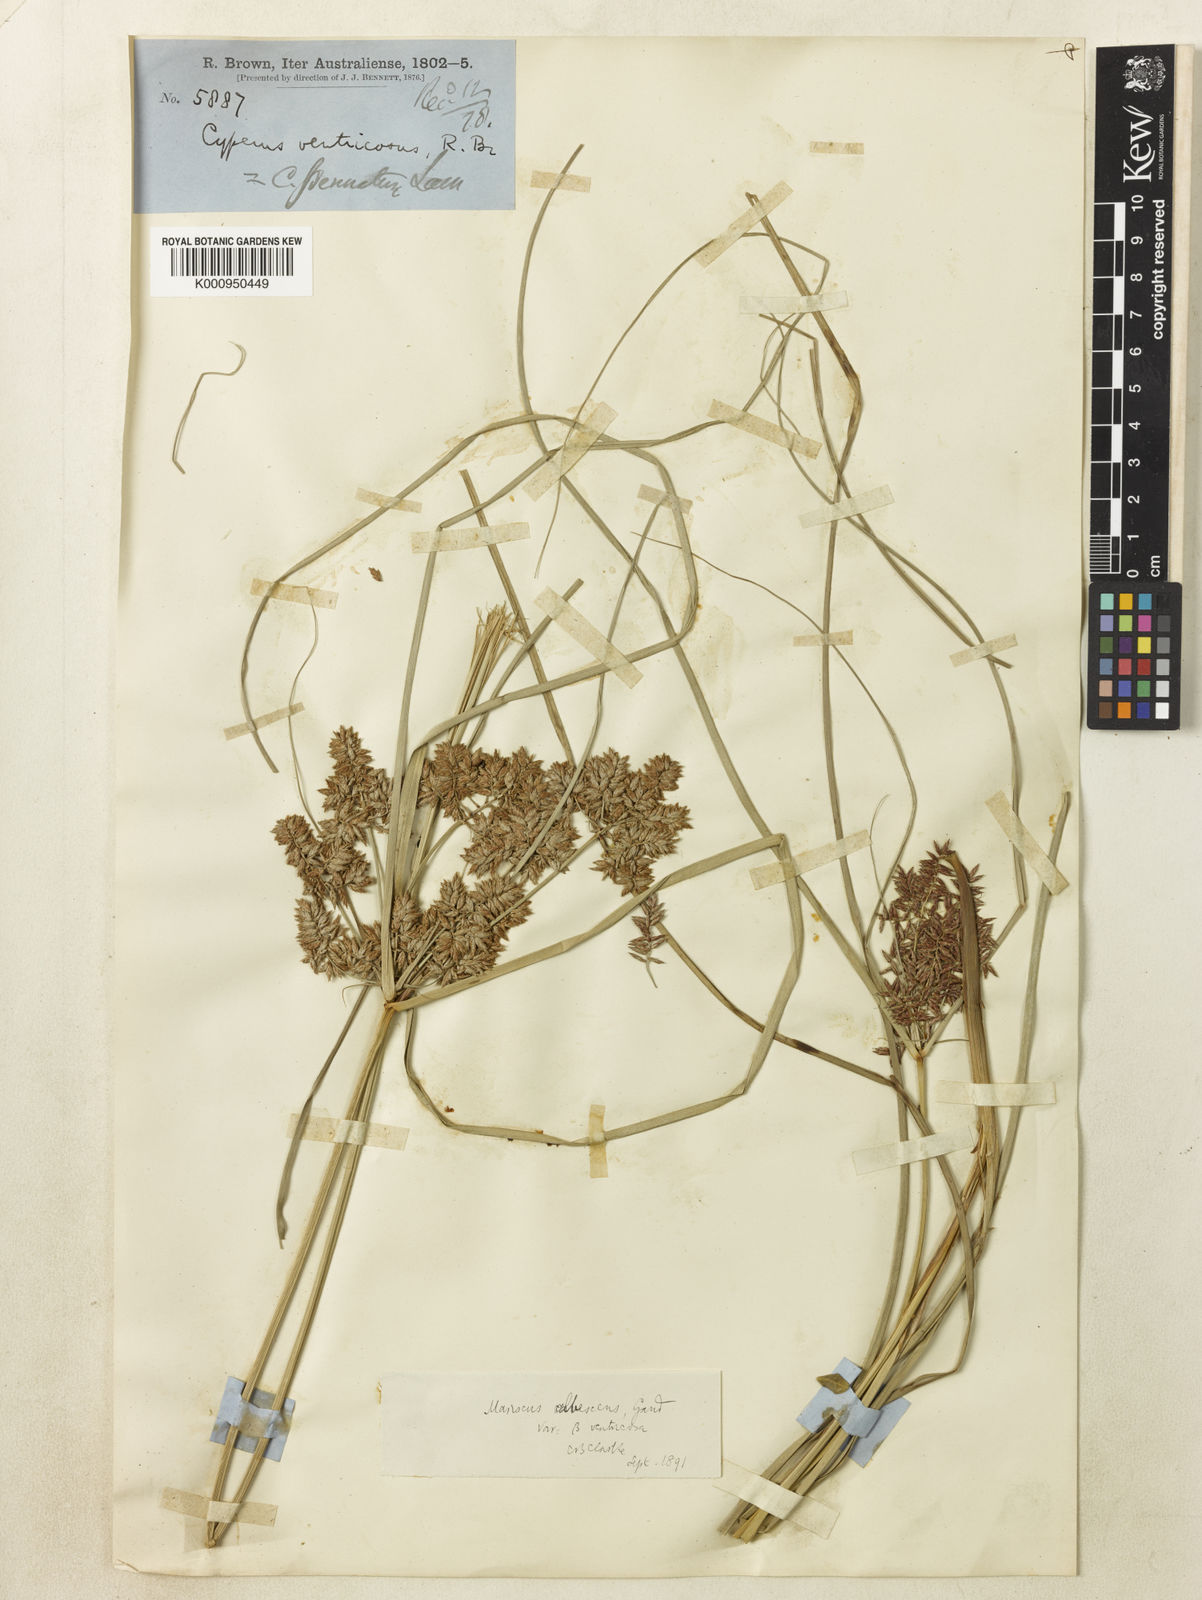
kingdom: Plantae
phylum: Tracheophyta
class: Liliopsida
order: Poales
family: Cyperaceae
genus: Cyperus
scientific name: Cyperus javanicus
